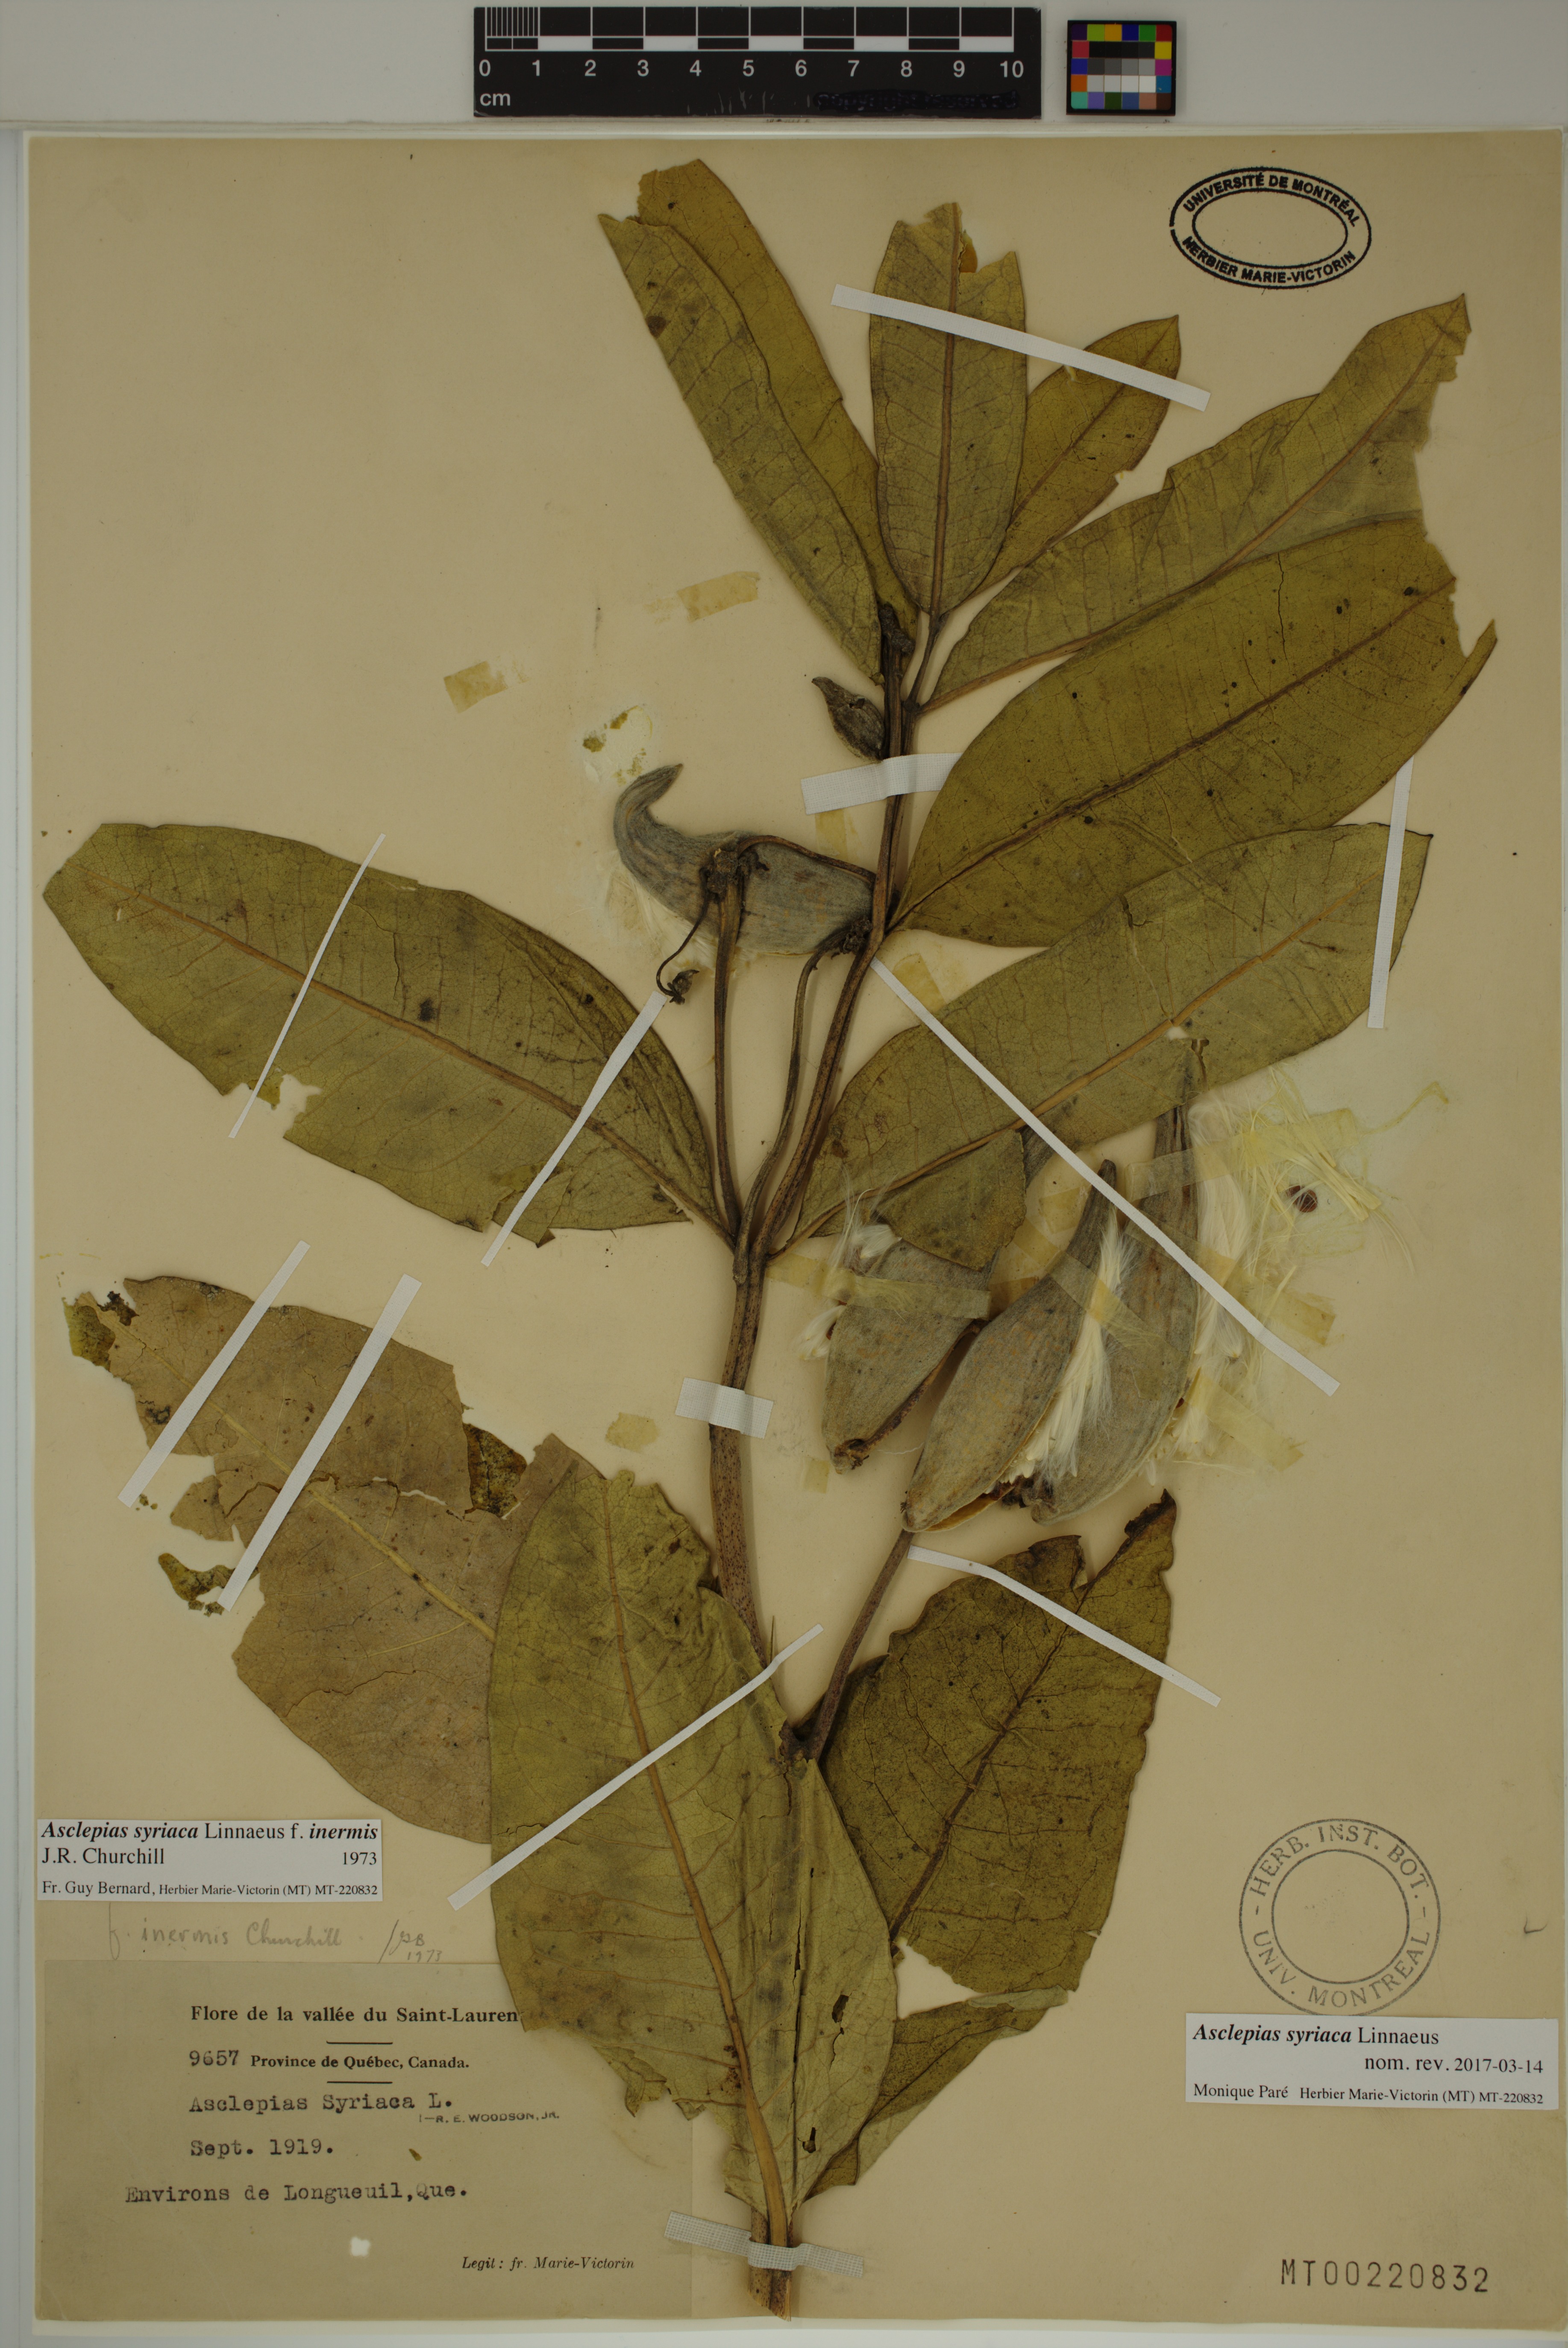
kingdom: Plantae
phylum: Tracheophyta
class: Magnoliopsida
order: Gentianales
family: Apocynaceae
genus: Asclepias
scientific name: Asclepias syriaca
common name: Common milkweed
